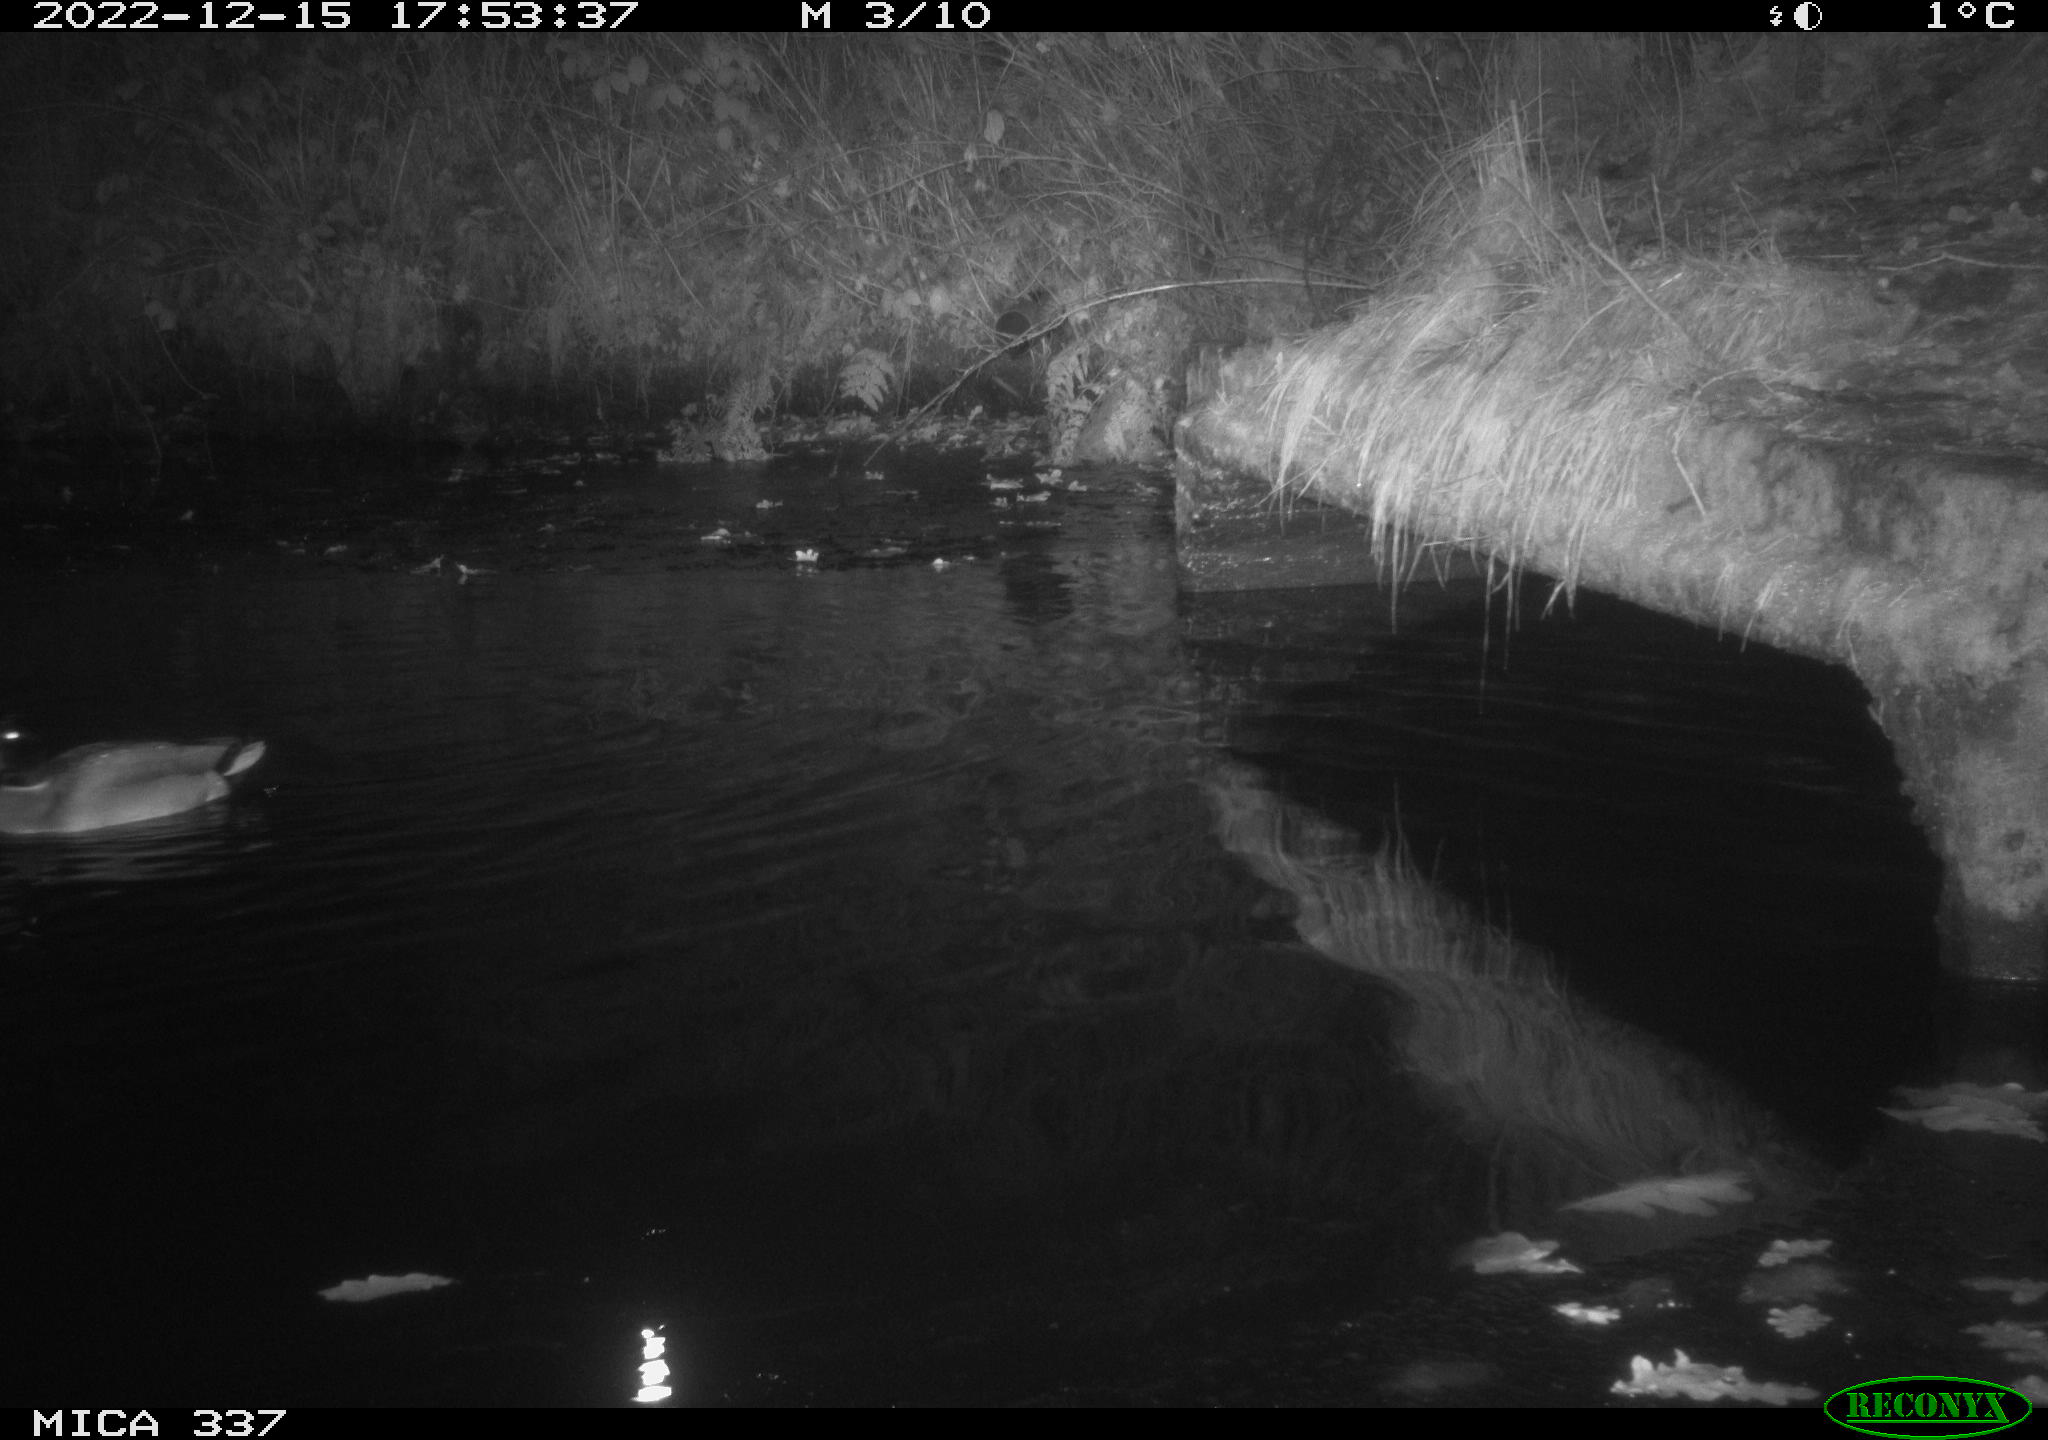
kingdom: Animalia
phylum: Chordata
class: Aves
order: Anseriformes
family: Anatidae
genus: Anas
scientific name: Anas
